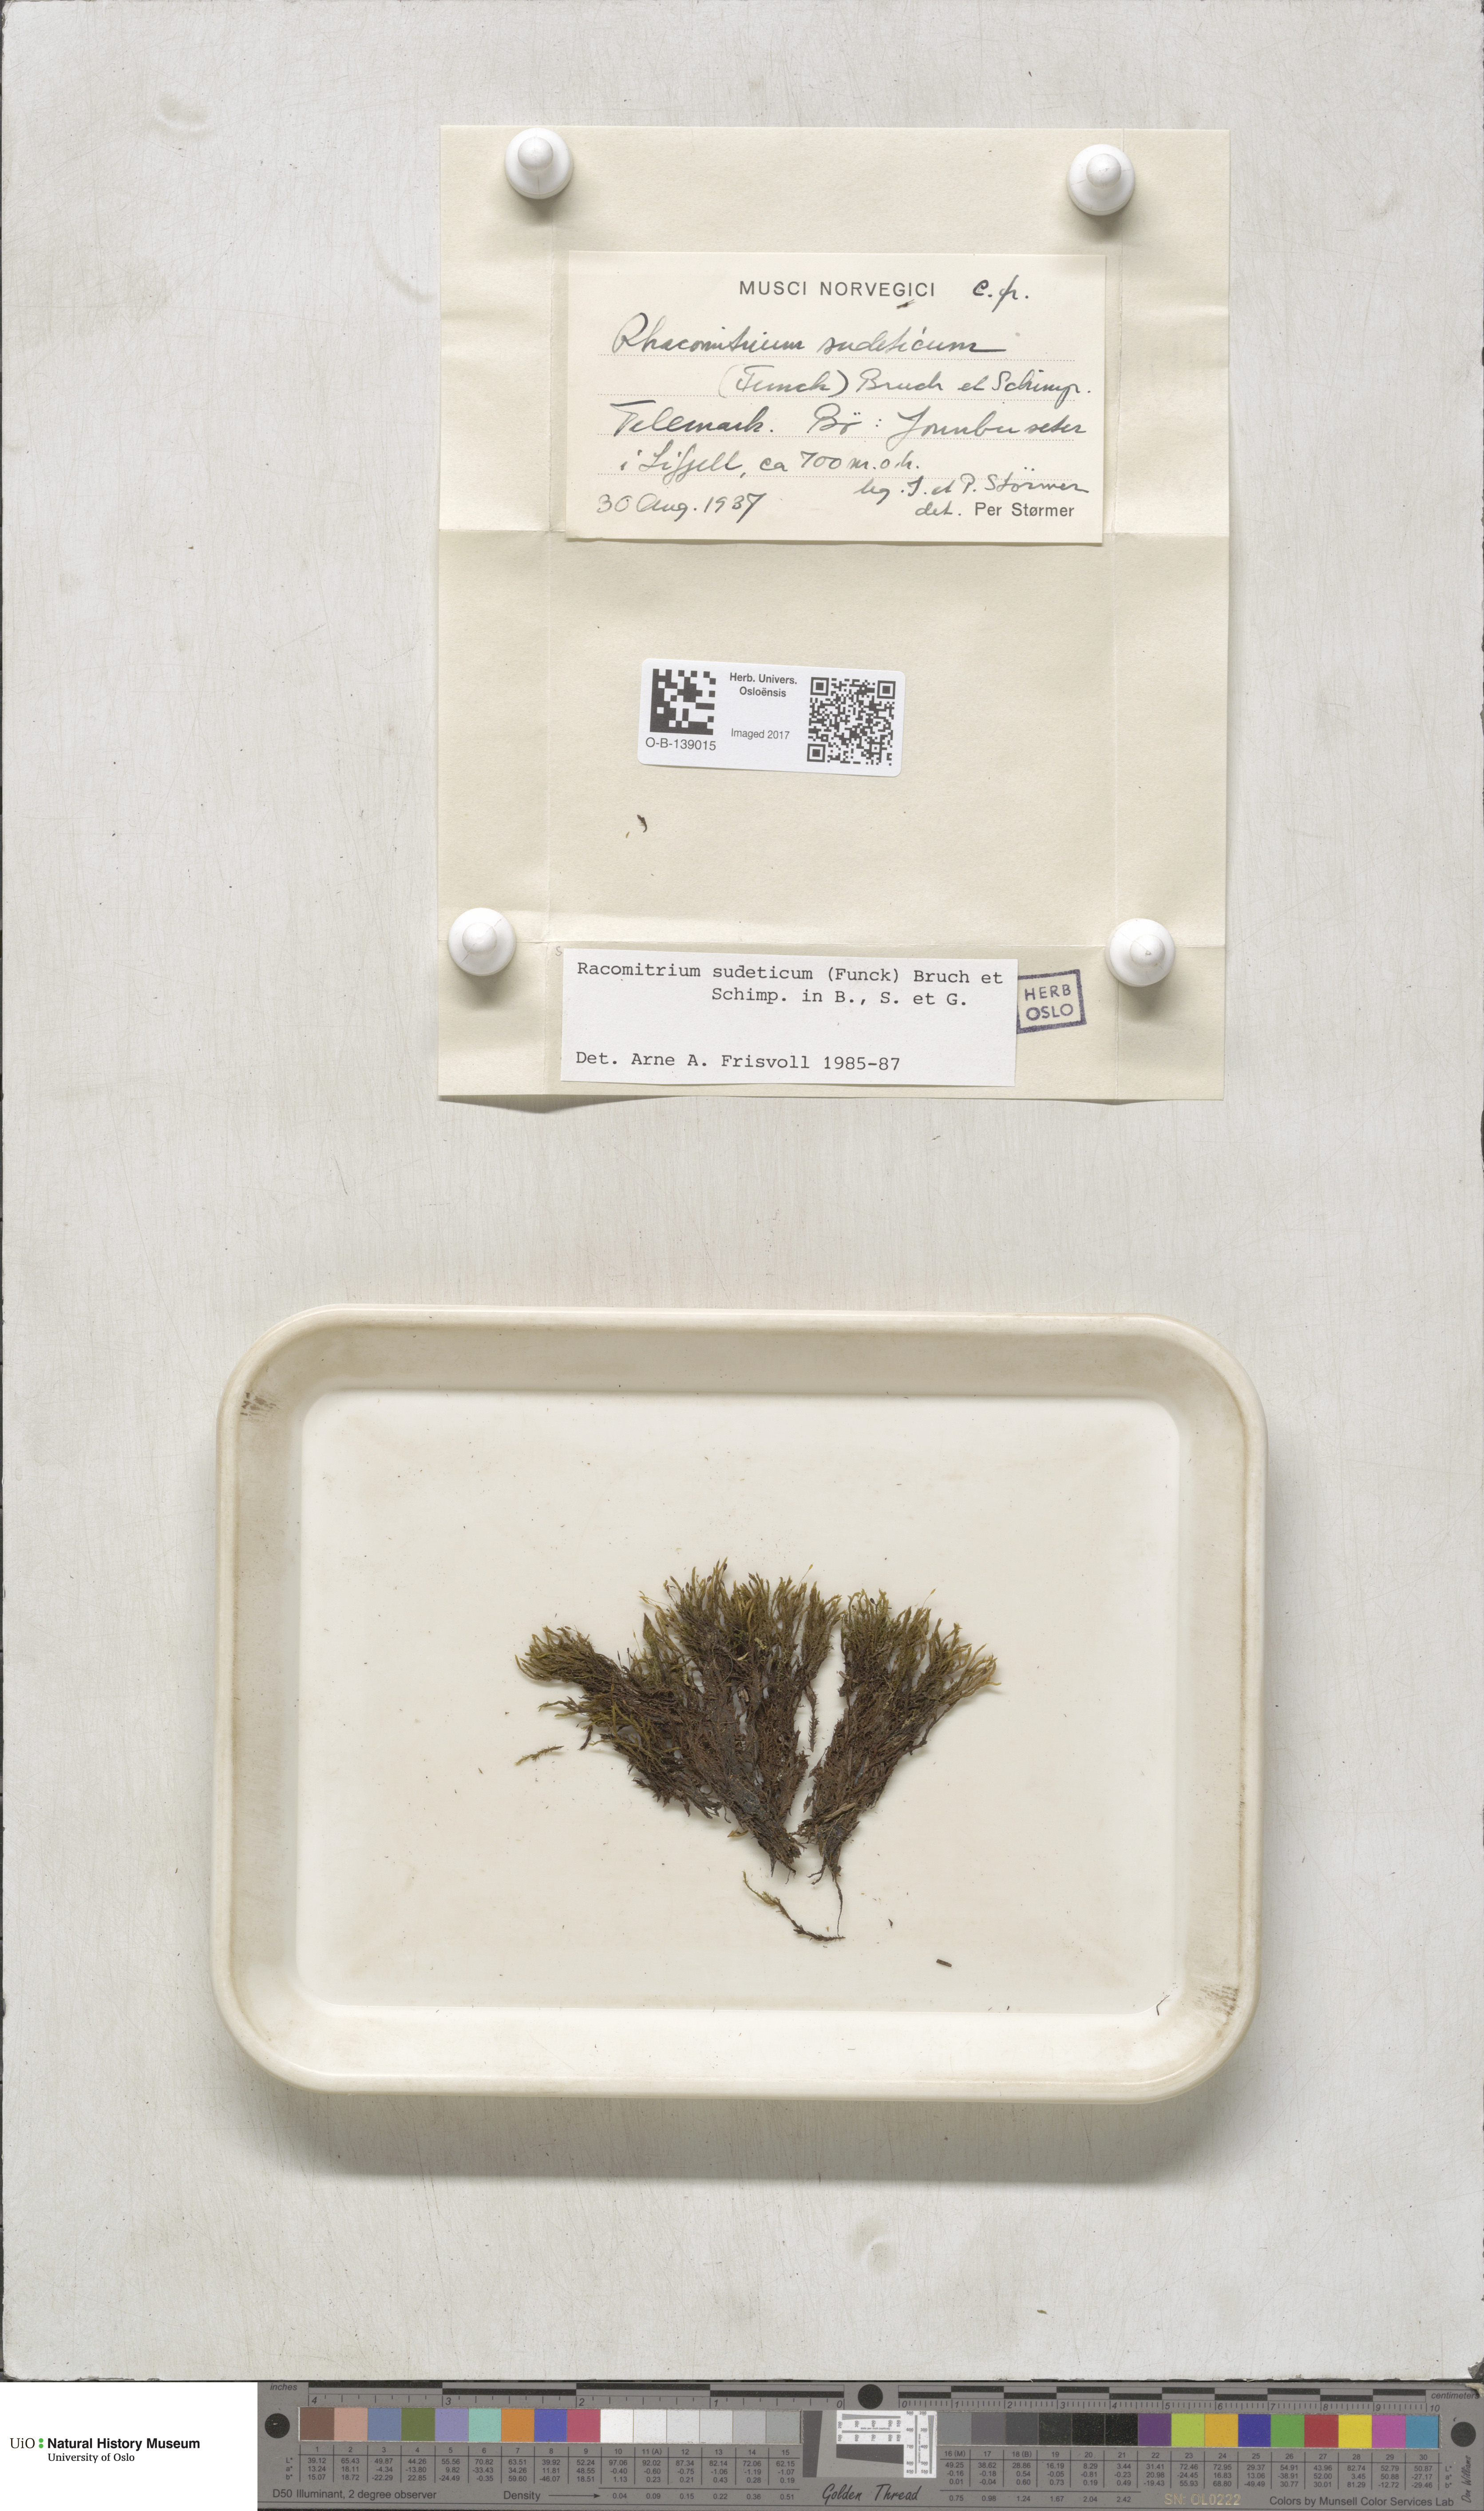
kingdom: Plantae
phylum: Bryophyta
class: Bryopsida
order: Grimmiales
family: Grimmiaceae
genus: Bucklandiella
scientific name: Bucklandiella sudetica
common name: Slender fringe-moss
